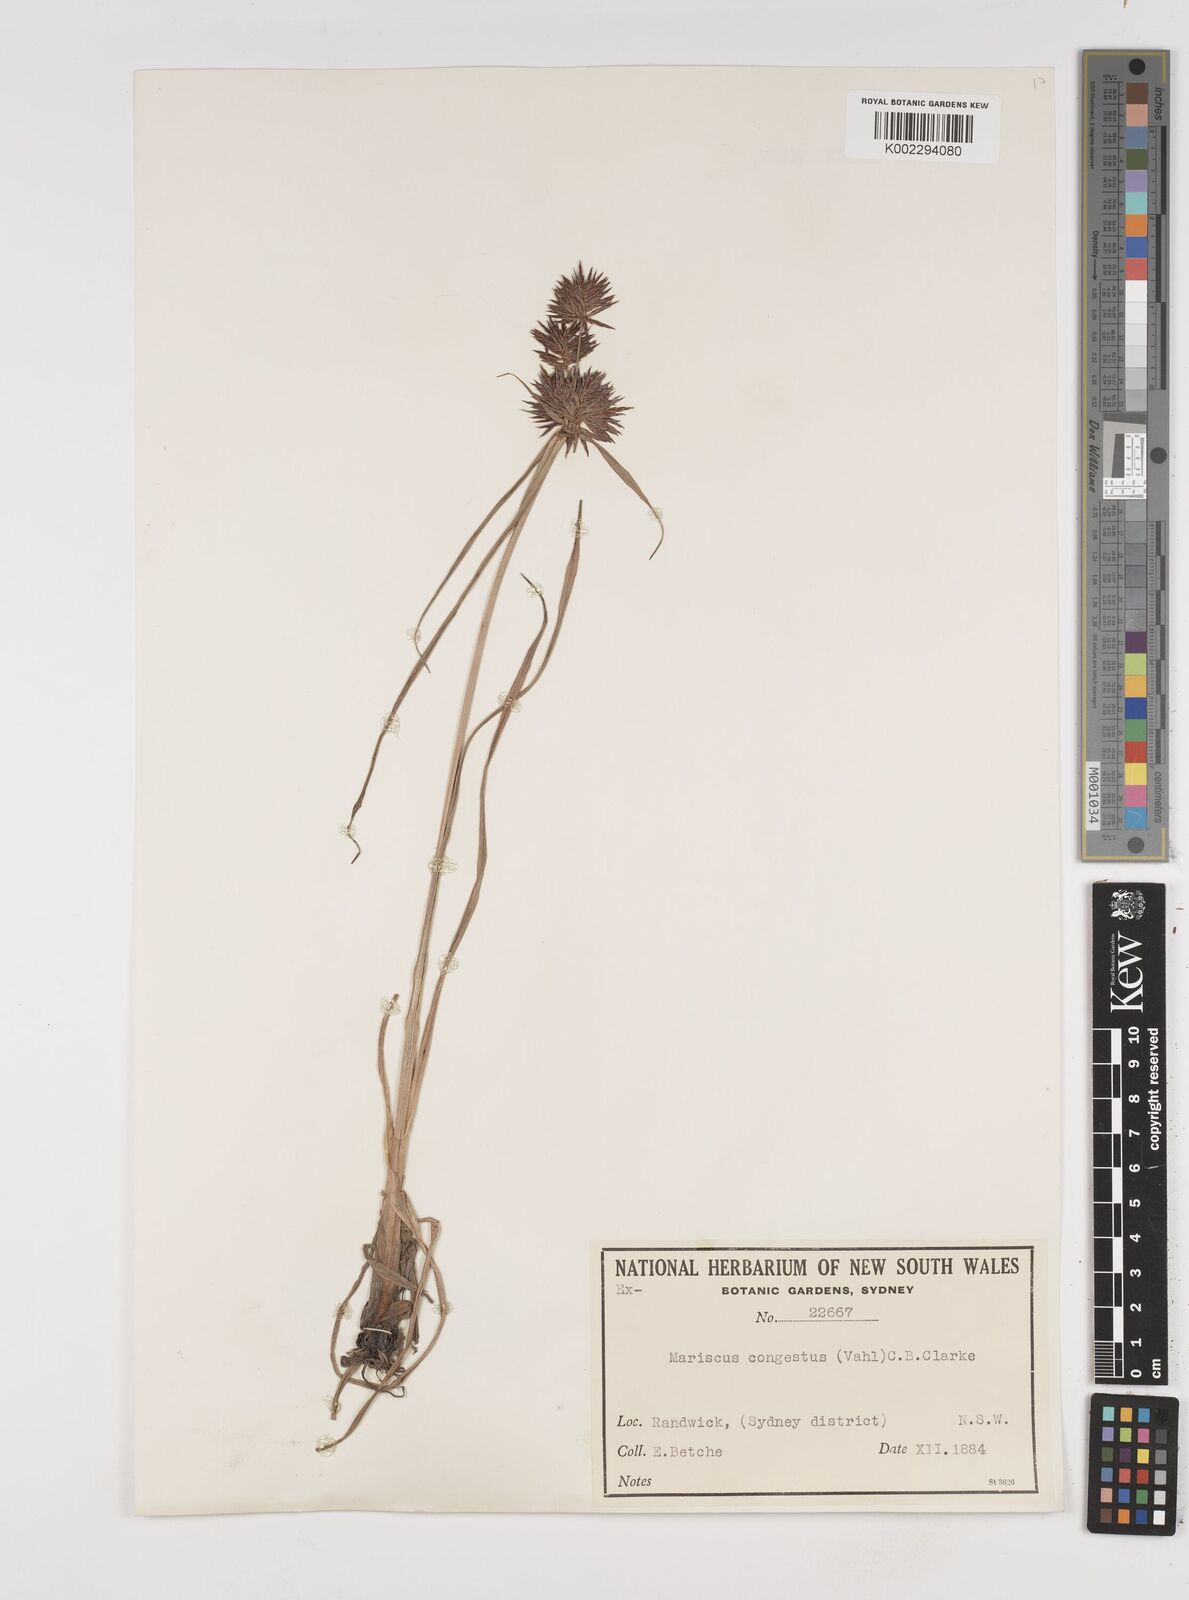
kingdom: Plantae
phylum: Tracheophyta
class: Liliopsida
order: Poales
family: Cyperaceae
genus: Cyperus
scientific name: Cyperus congestus
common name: Dense flat sedge
